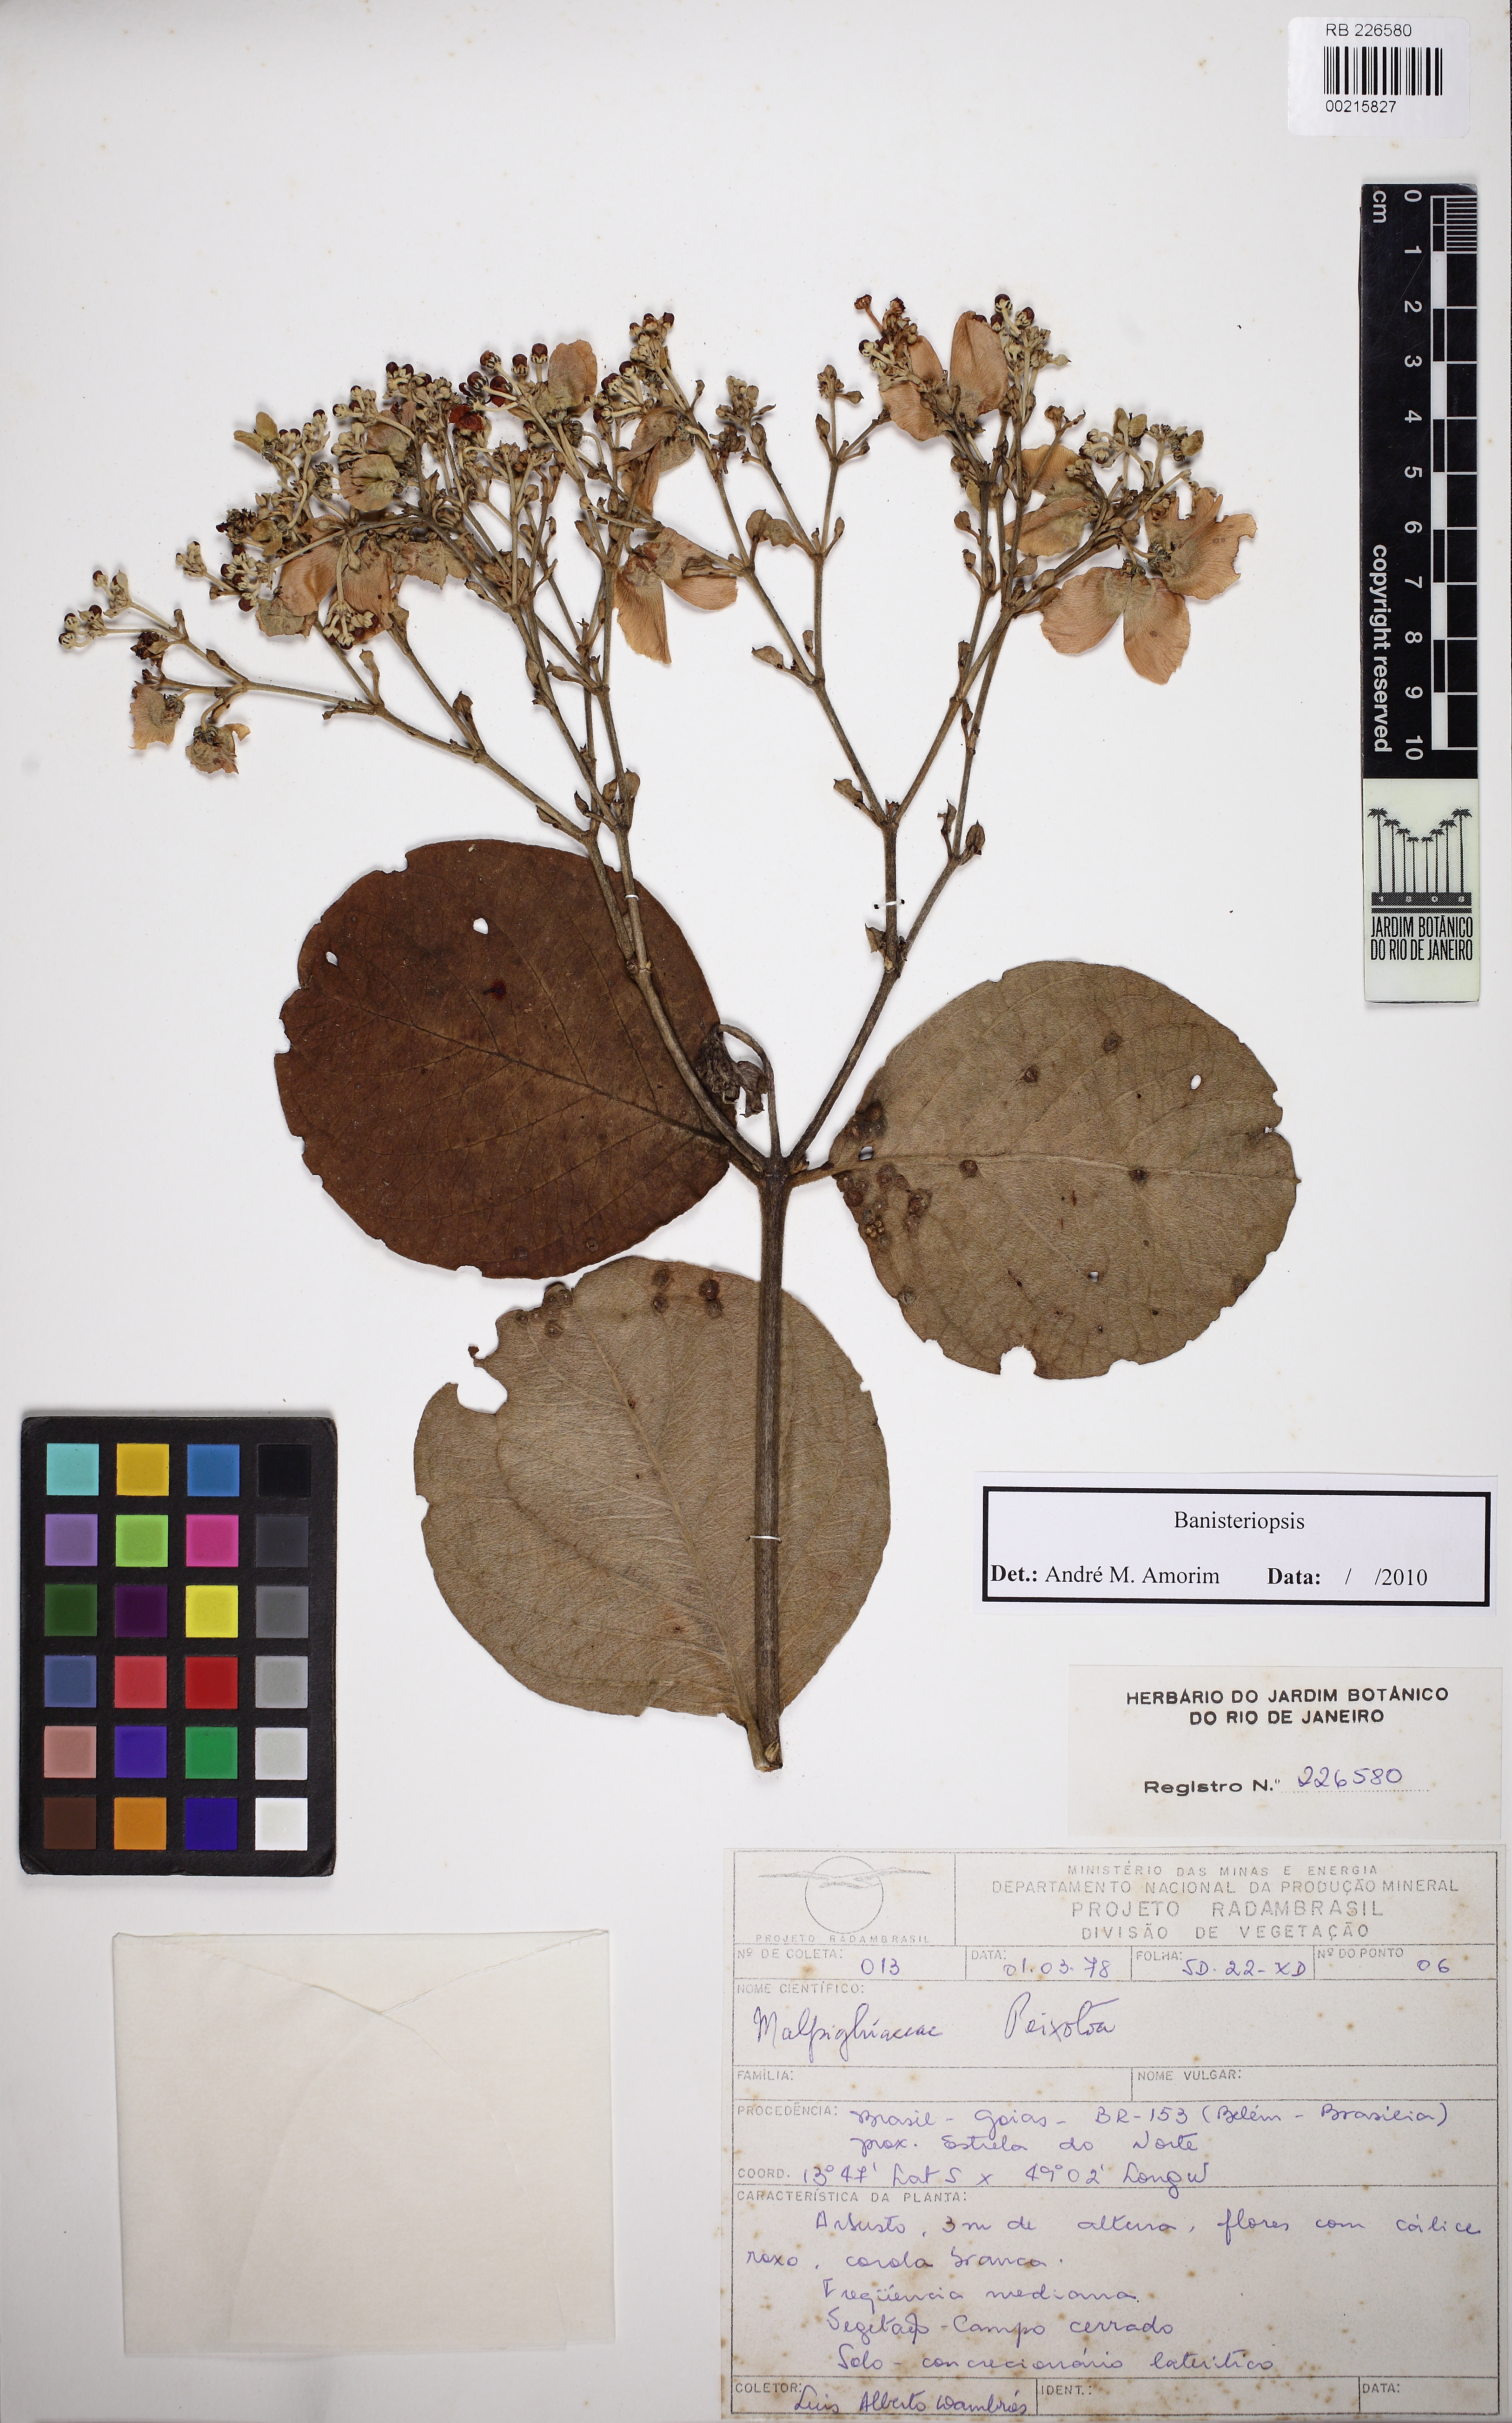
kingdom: Plantae
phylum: Tracheophyta
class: Magnoliopsida
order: Malpighiales
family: Malpighiaceae
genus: Banisteriopsis
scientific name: Banisteriopsis megaphylla
